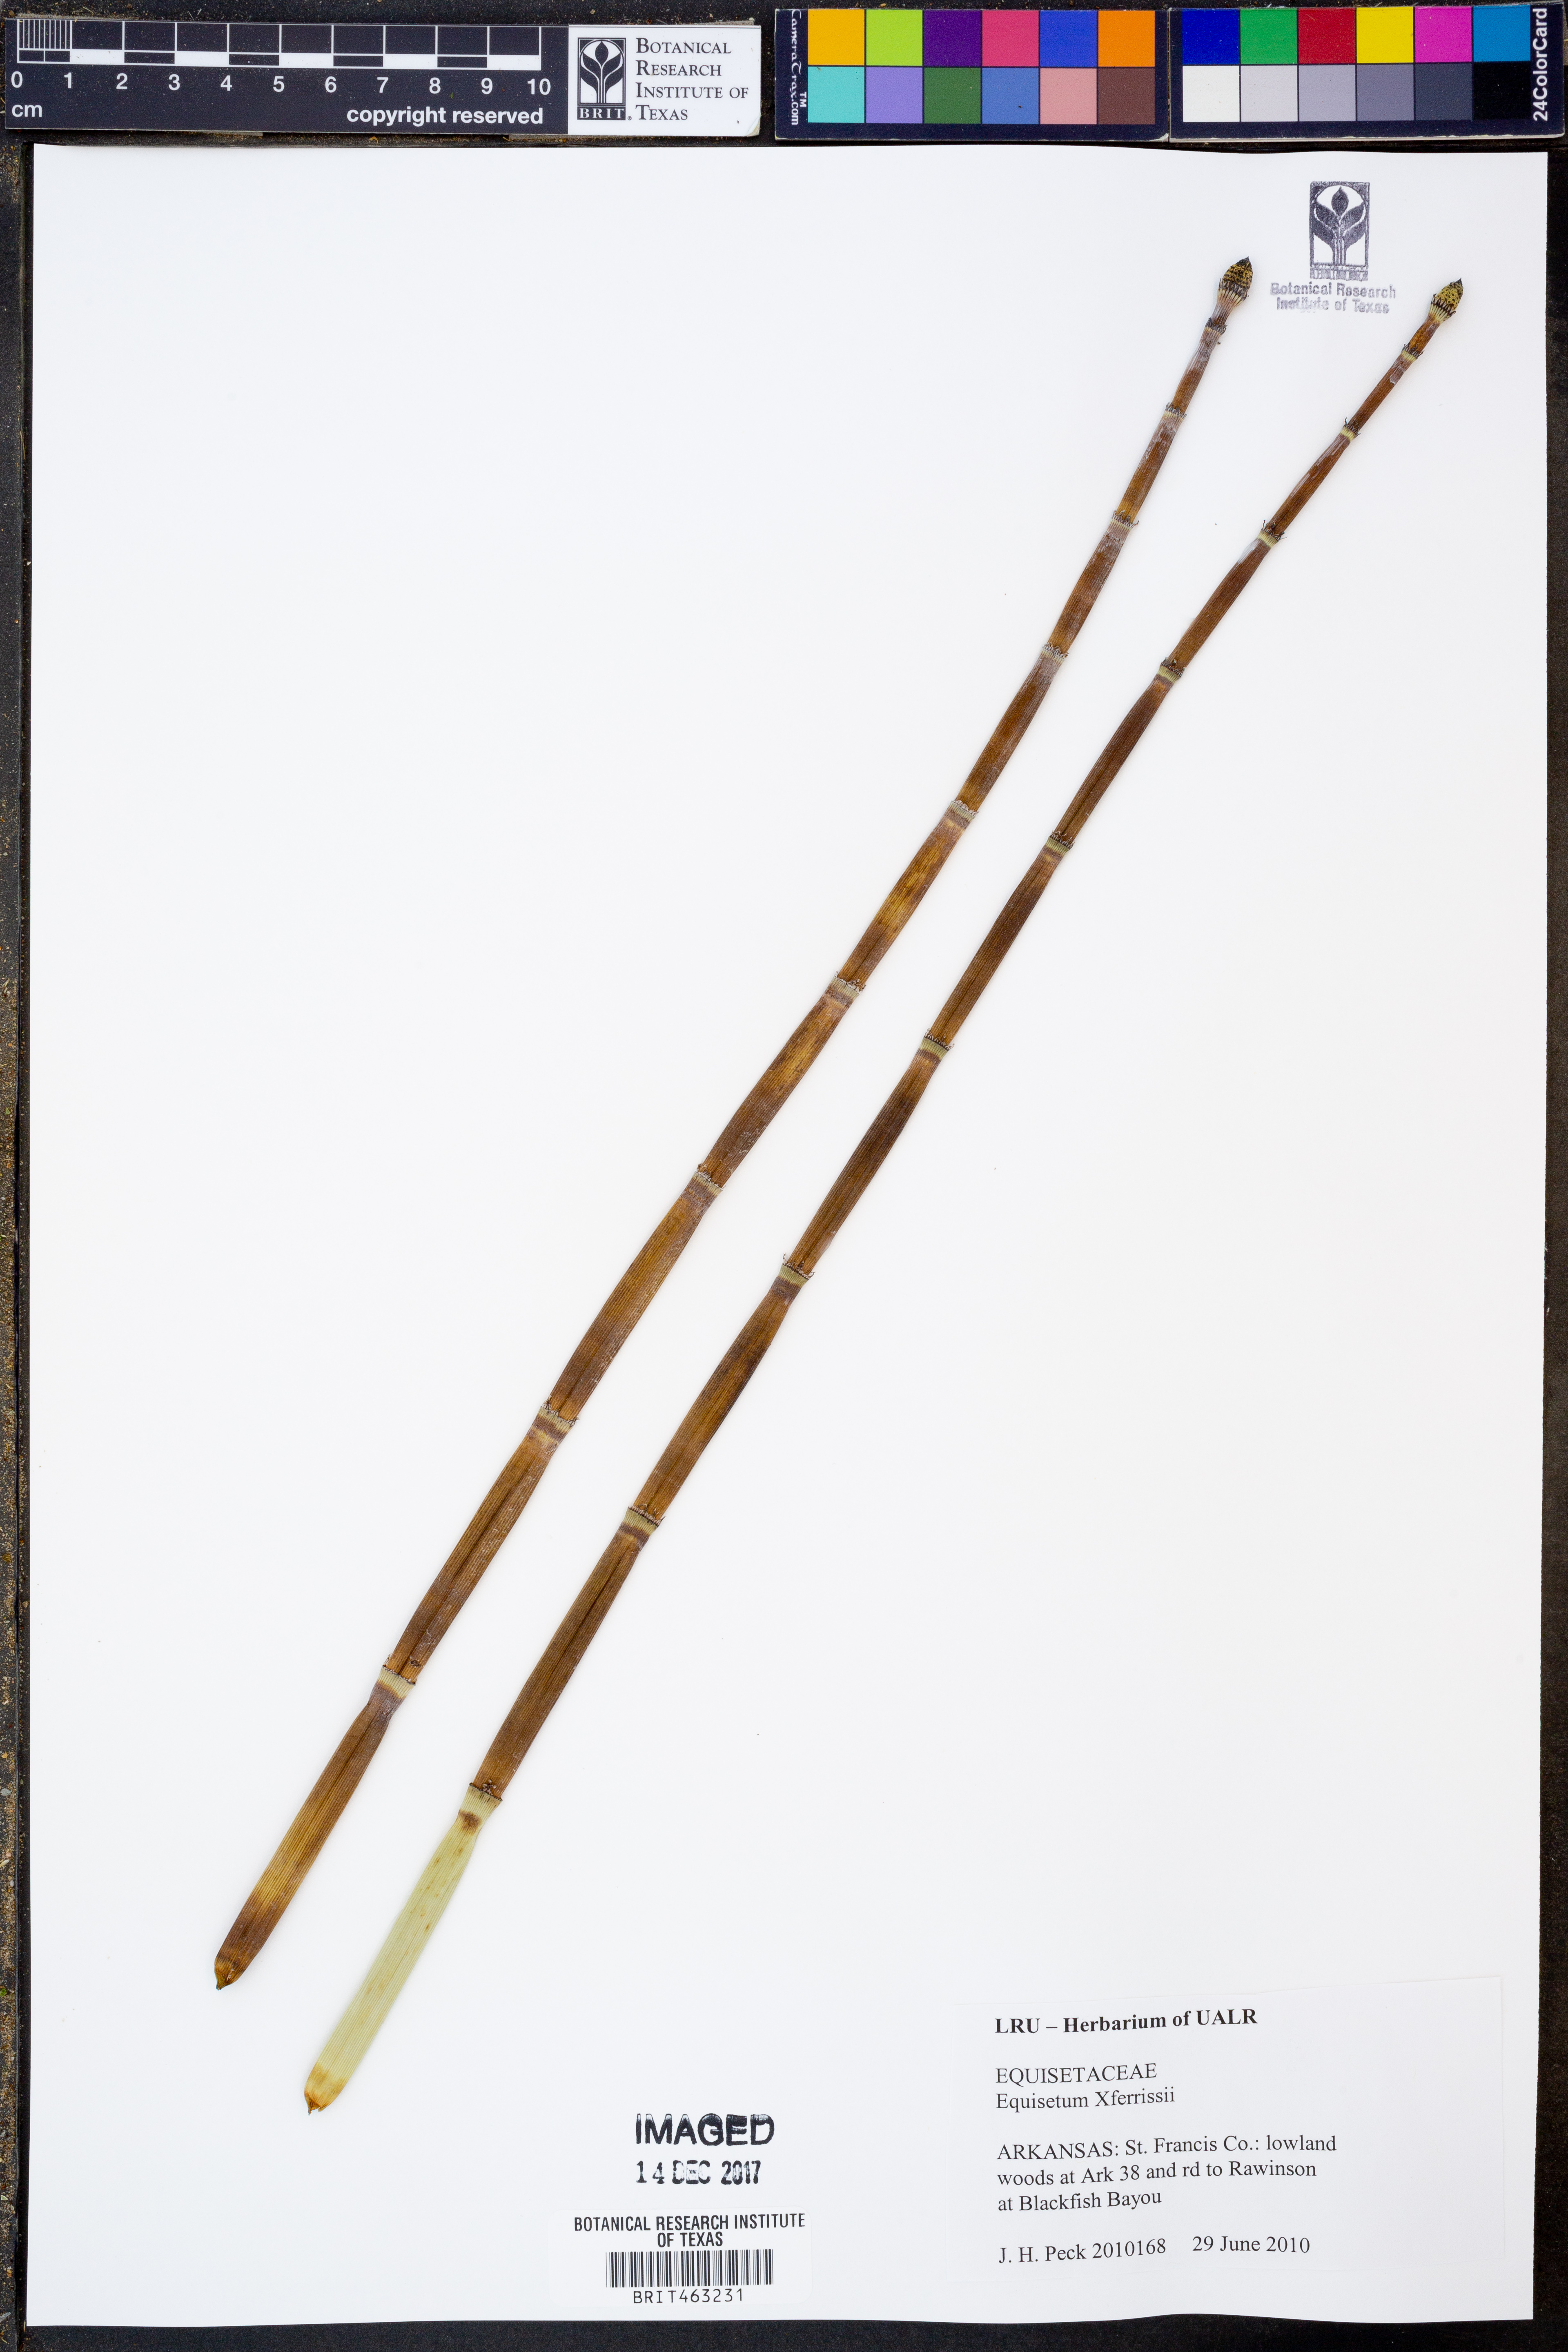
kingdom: Plantae
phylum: Tracheophyta
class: Polypodiopsida
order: Equisetales
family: Equisetaceae
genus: Equisetum
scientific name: Equisetum ferrissii
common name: Ferriss' horsetail
